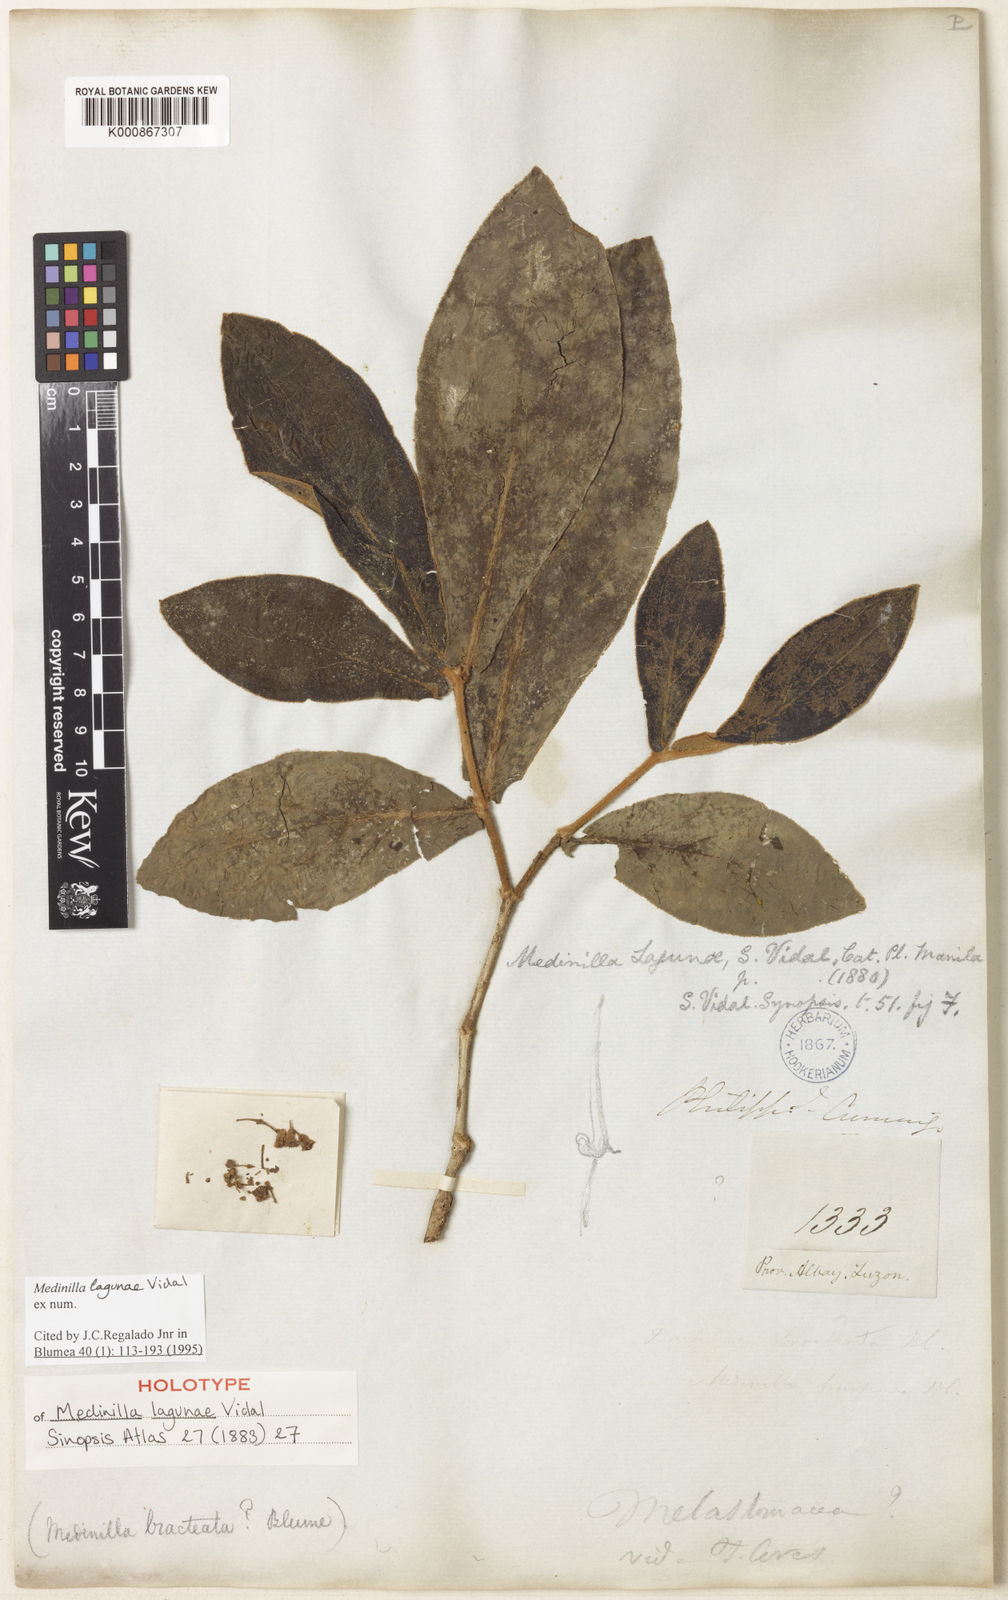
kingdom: Plantae
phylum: Tracheophyta
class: Magnoliopsida
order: Myrtales
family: Melastomataceae
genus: Medinilla
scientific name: Medinilla lagunae
